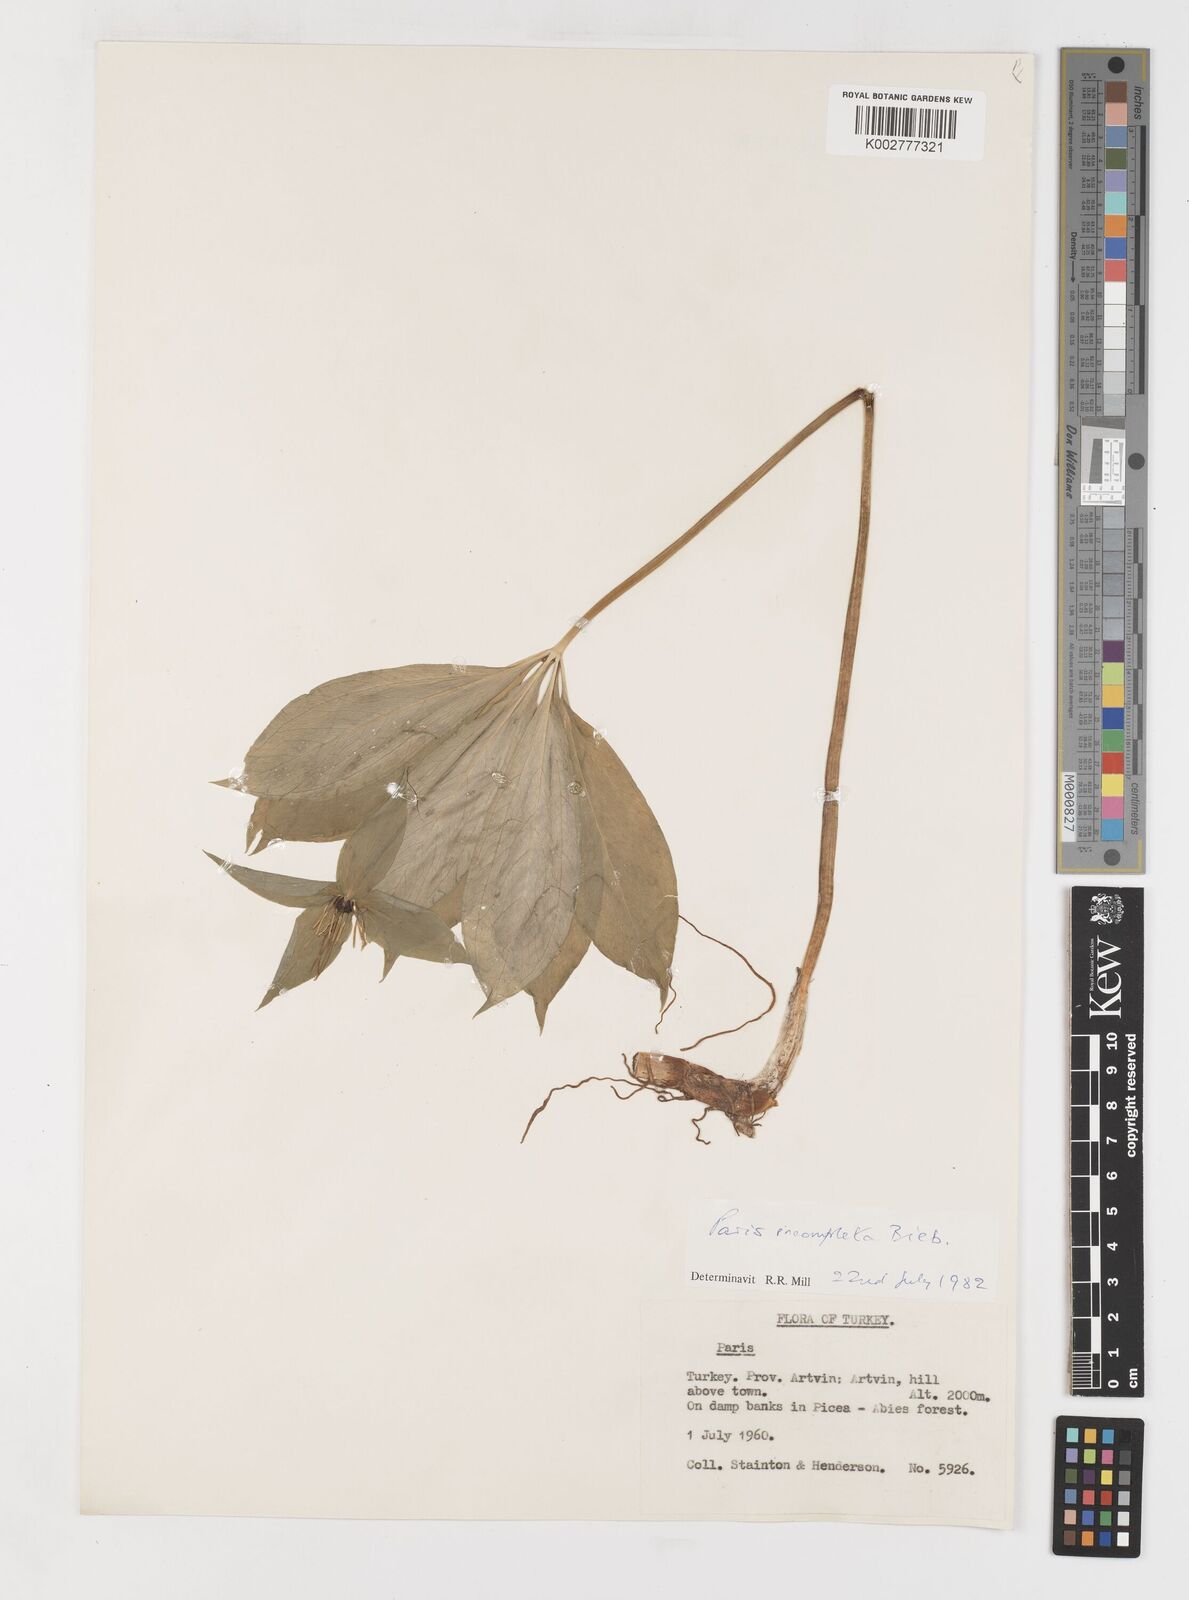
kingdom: Plantae
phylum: Tracheophyta
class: Liliopsida
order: Liliales
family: Melanthiaceae
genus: Paris
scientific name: Paris incompleta
